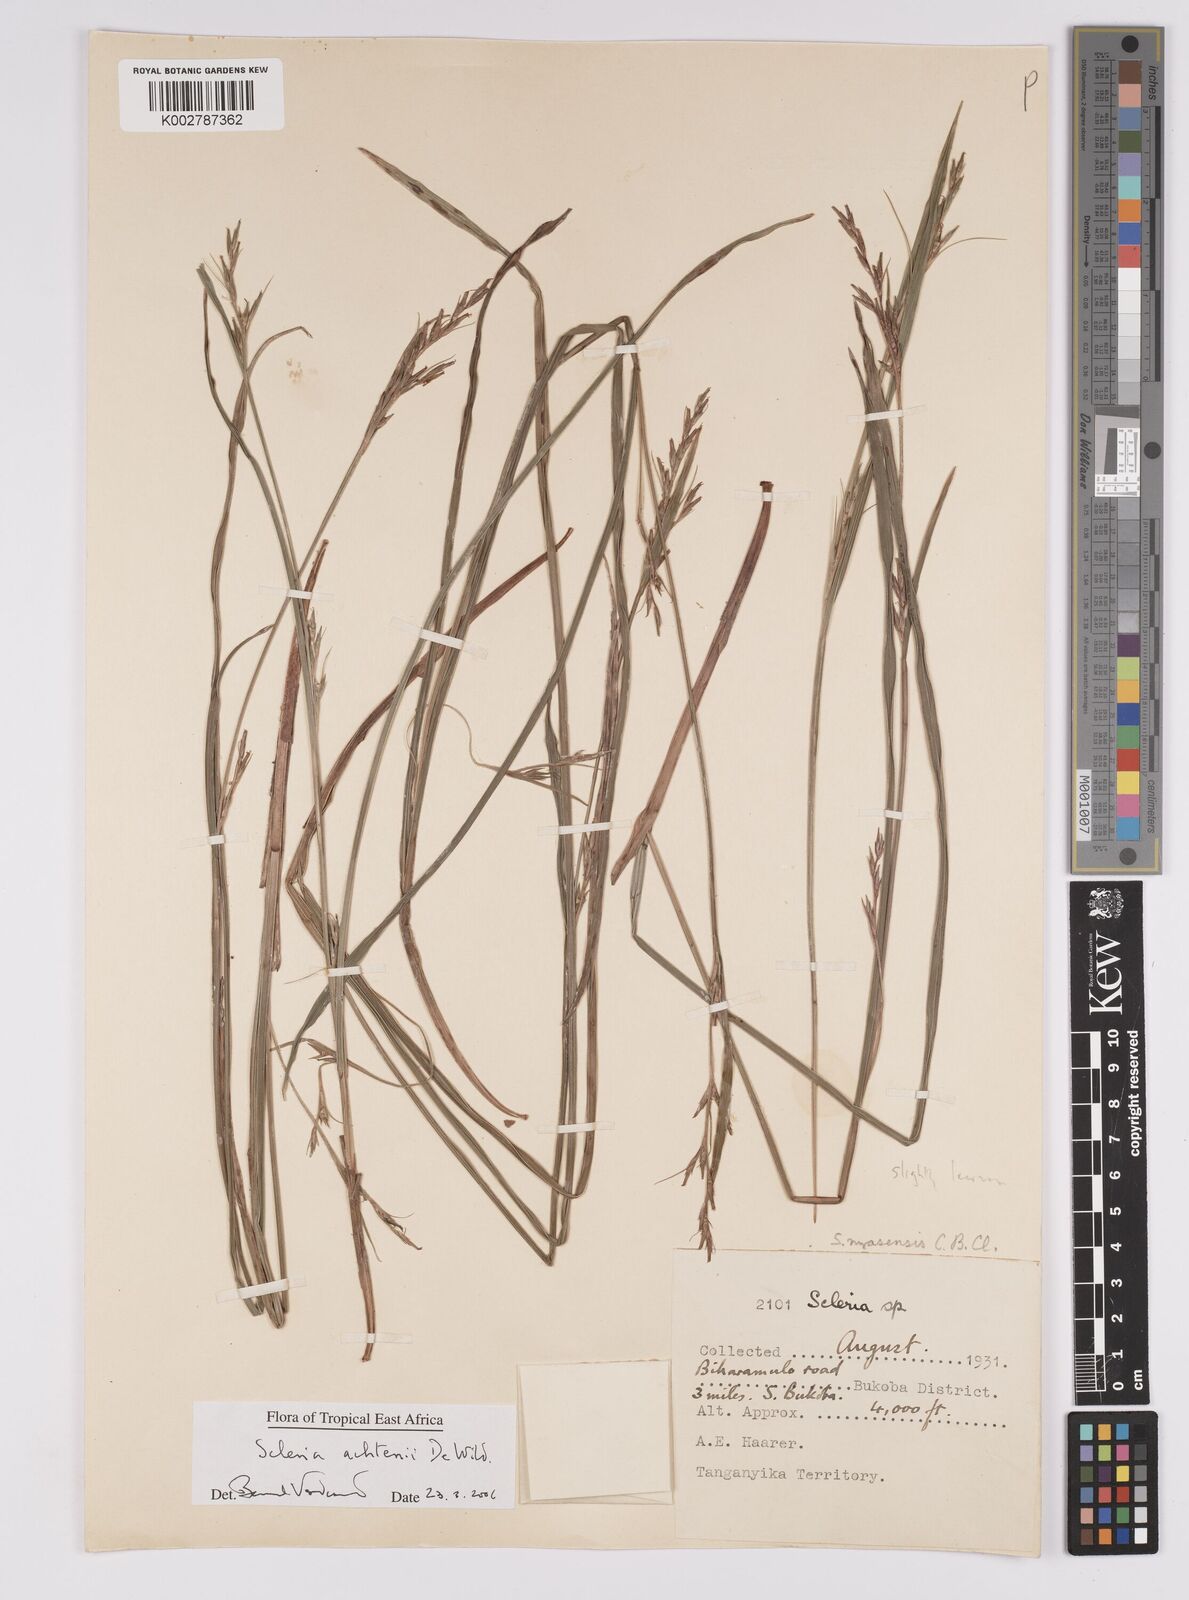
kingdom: Plantae
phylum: Tracheophyta
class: Liliopsida
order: Poales
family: Cyperaceae
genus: Scleria
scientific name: Scleria achtenii
